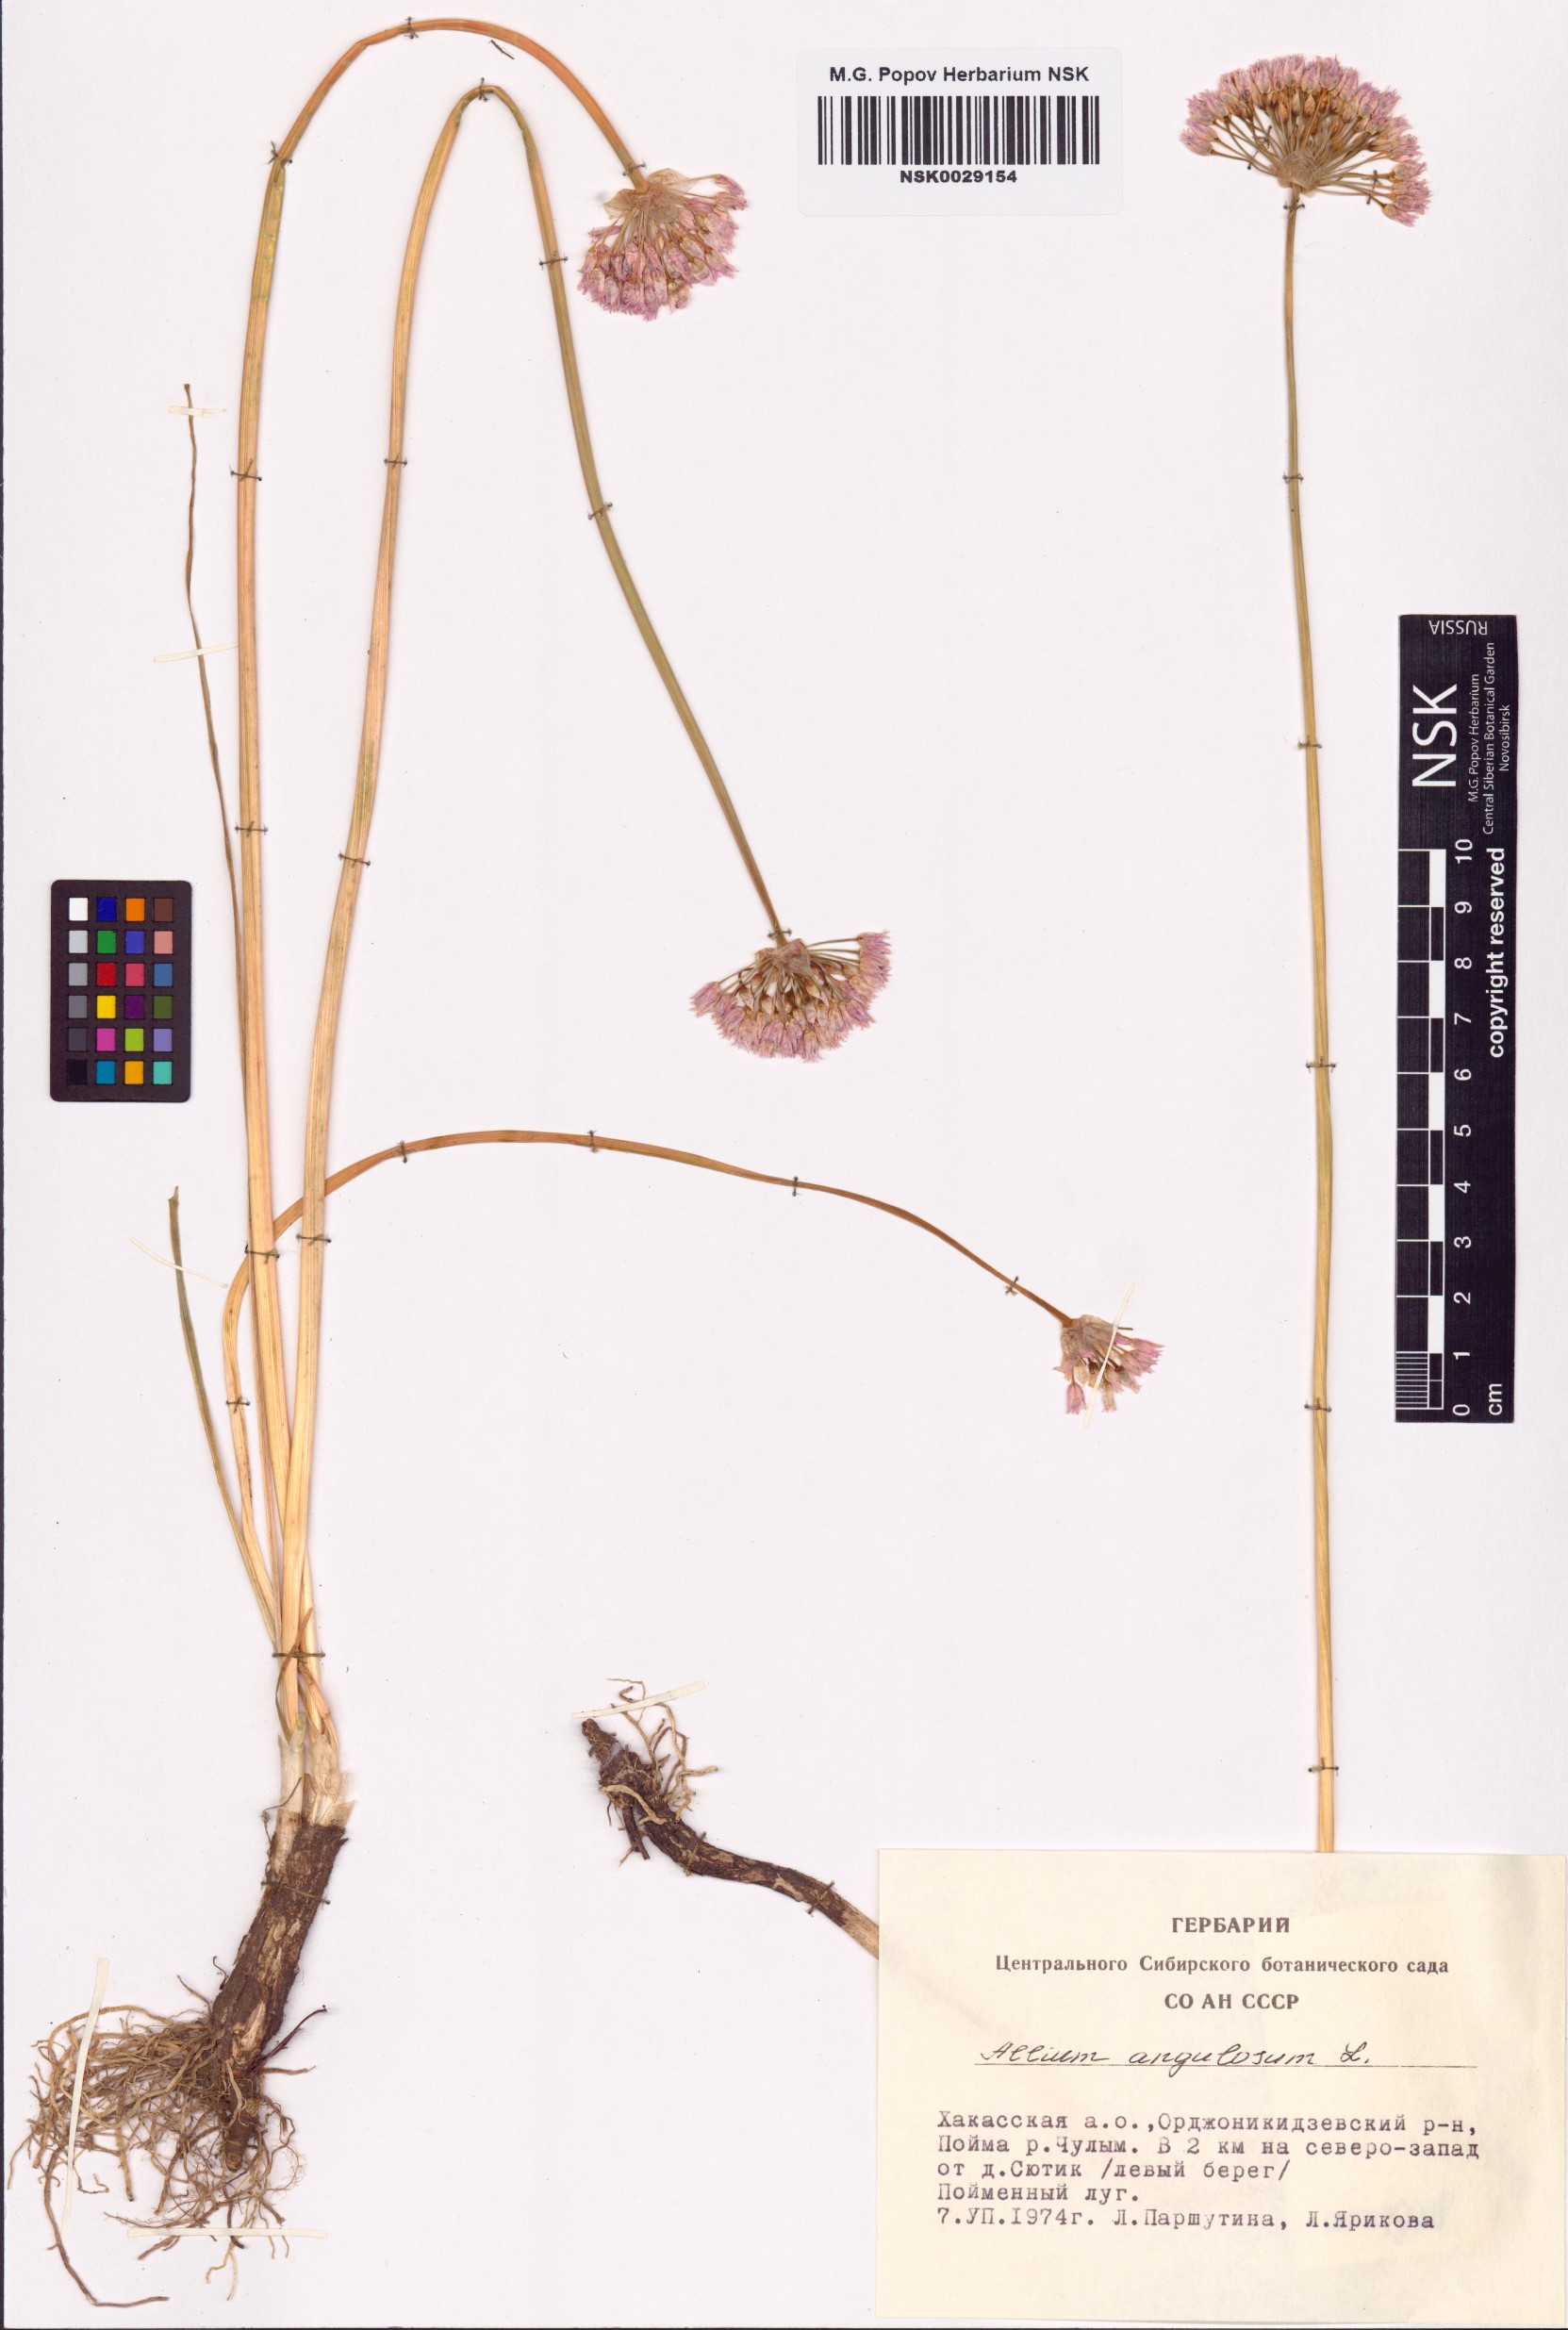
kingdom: Plantae
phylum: Tracheophyta
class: Liliopsida
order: Asparagales
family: Amaryllidaceae
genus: Allium
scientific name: Allium angulosum
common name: Mouse garlic
